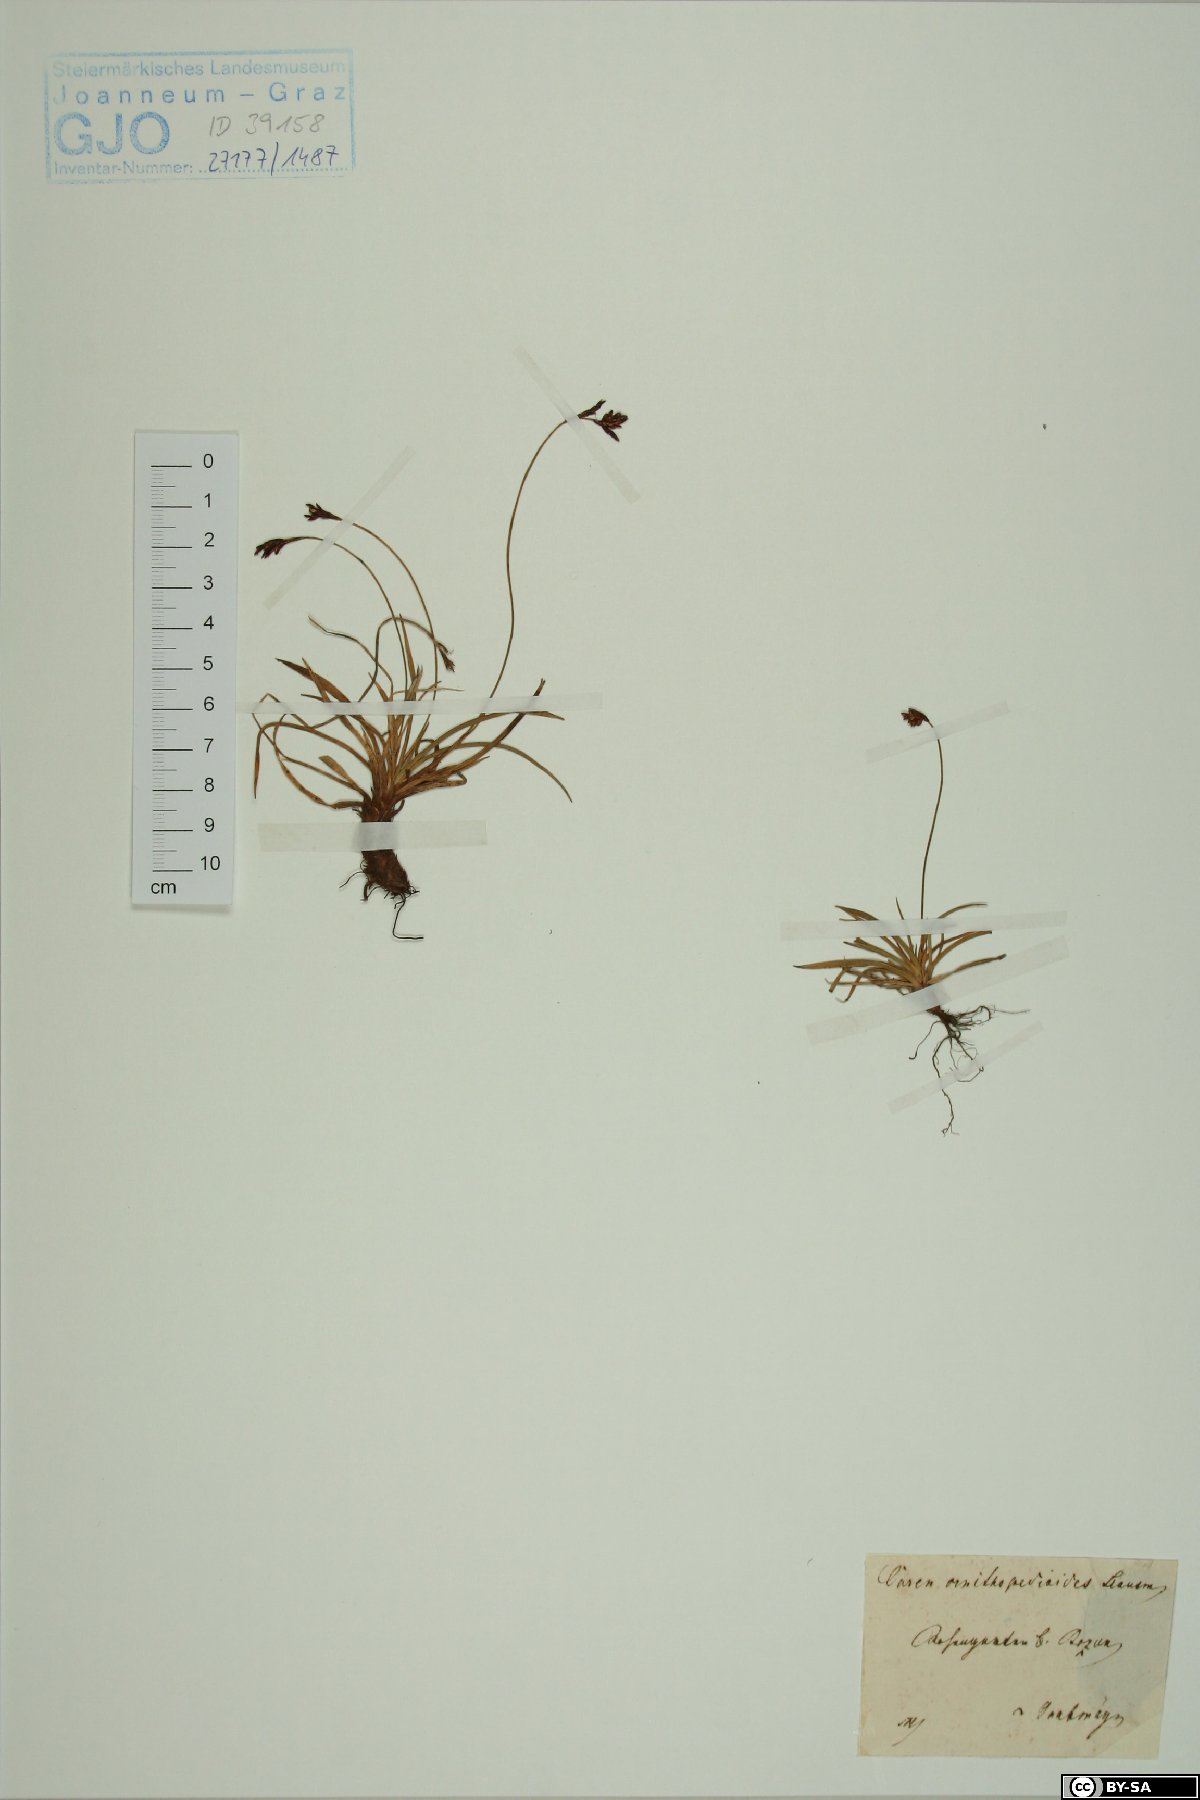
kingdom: Plantae
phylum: Tracheophyta
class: Liliopsida
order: Poales
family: Cyperaceae
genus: Carex
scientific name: Carex ornithopoda
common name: Bird's-foot sedge
